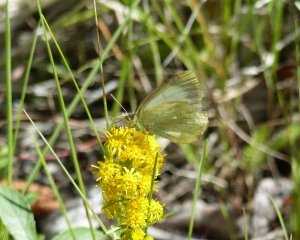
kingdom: Animalia
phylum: Arthropoda
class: Insecta
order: Lepidoptera
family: Pieridae
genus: Colias
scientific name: Colias palaeno
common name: Chippewa Sulphur
